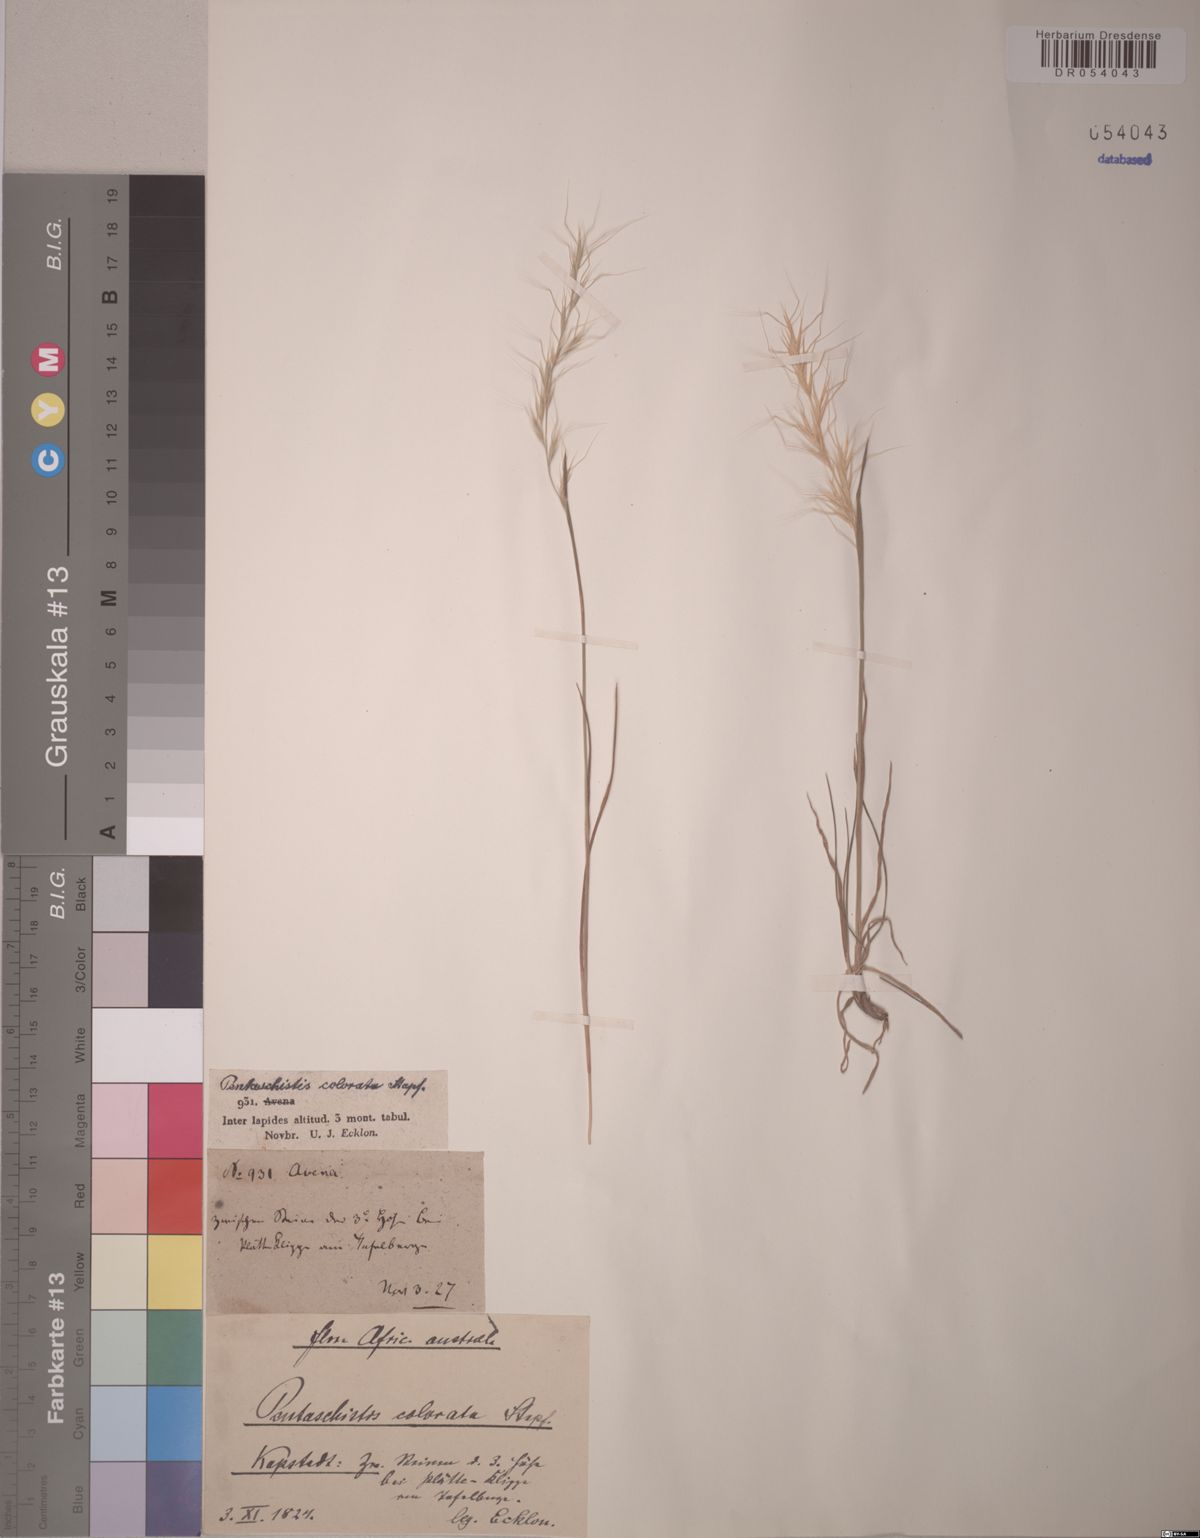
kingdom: Plantae
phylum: Tracheophyta
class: Liliopsida
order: Poales
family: Poaceae
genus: Pentameris
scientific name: Pentameris colorata
